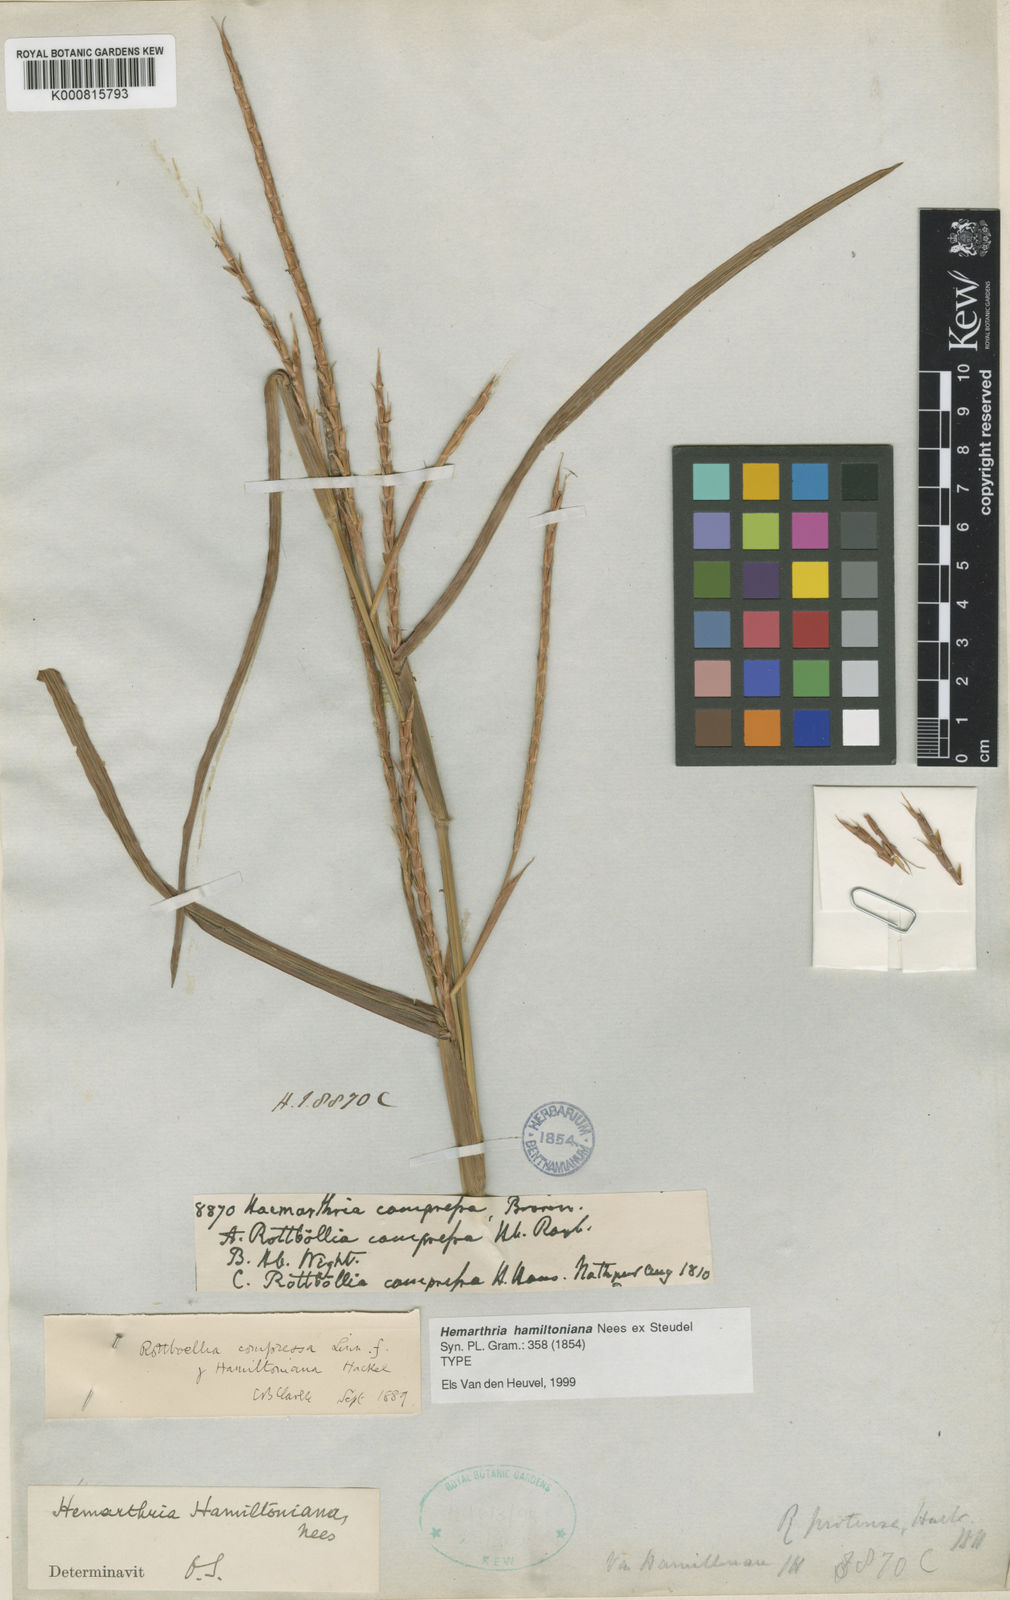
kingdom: Plantae
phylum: Tracheophyta
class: Liliopsida
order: Poales
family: Poaceae
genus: Hemarthria
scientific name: Hemarthria hamiltoniana
